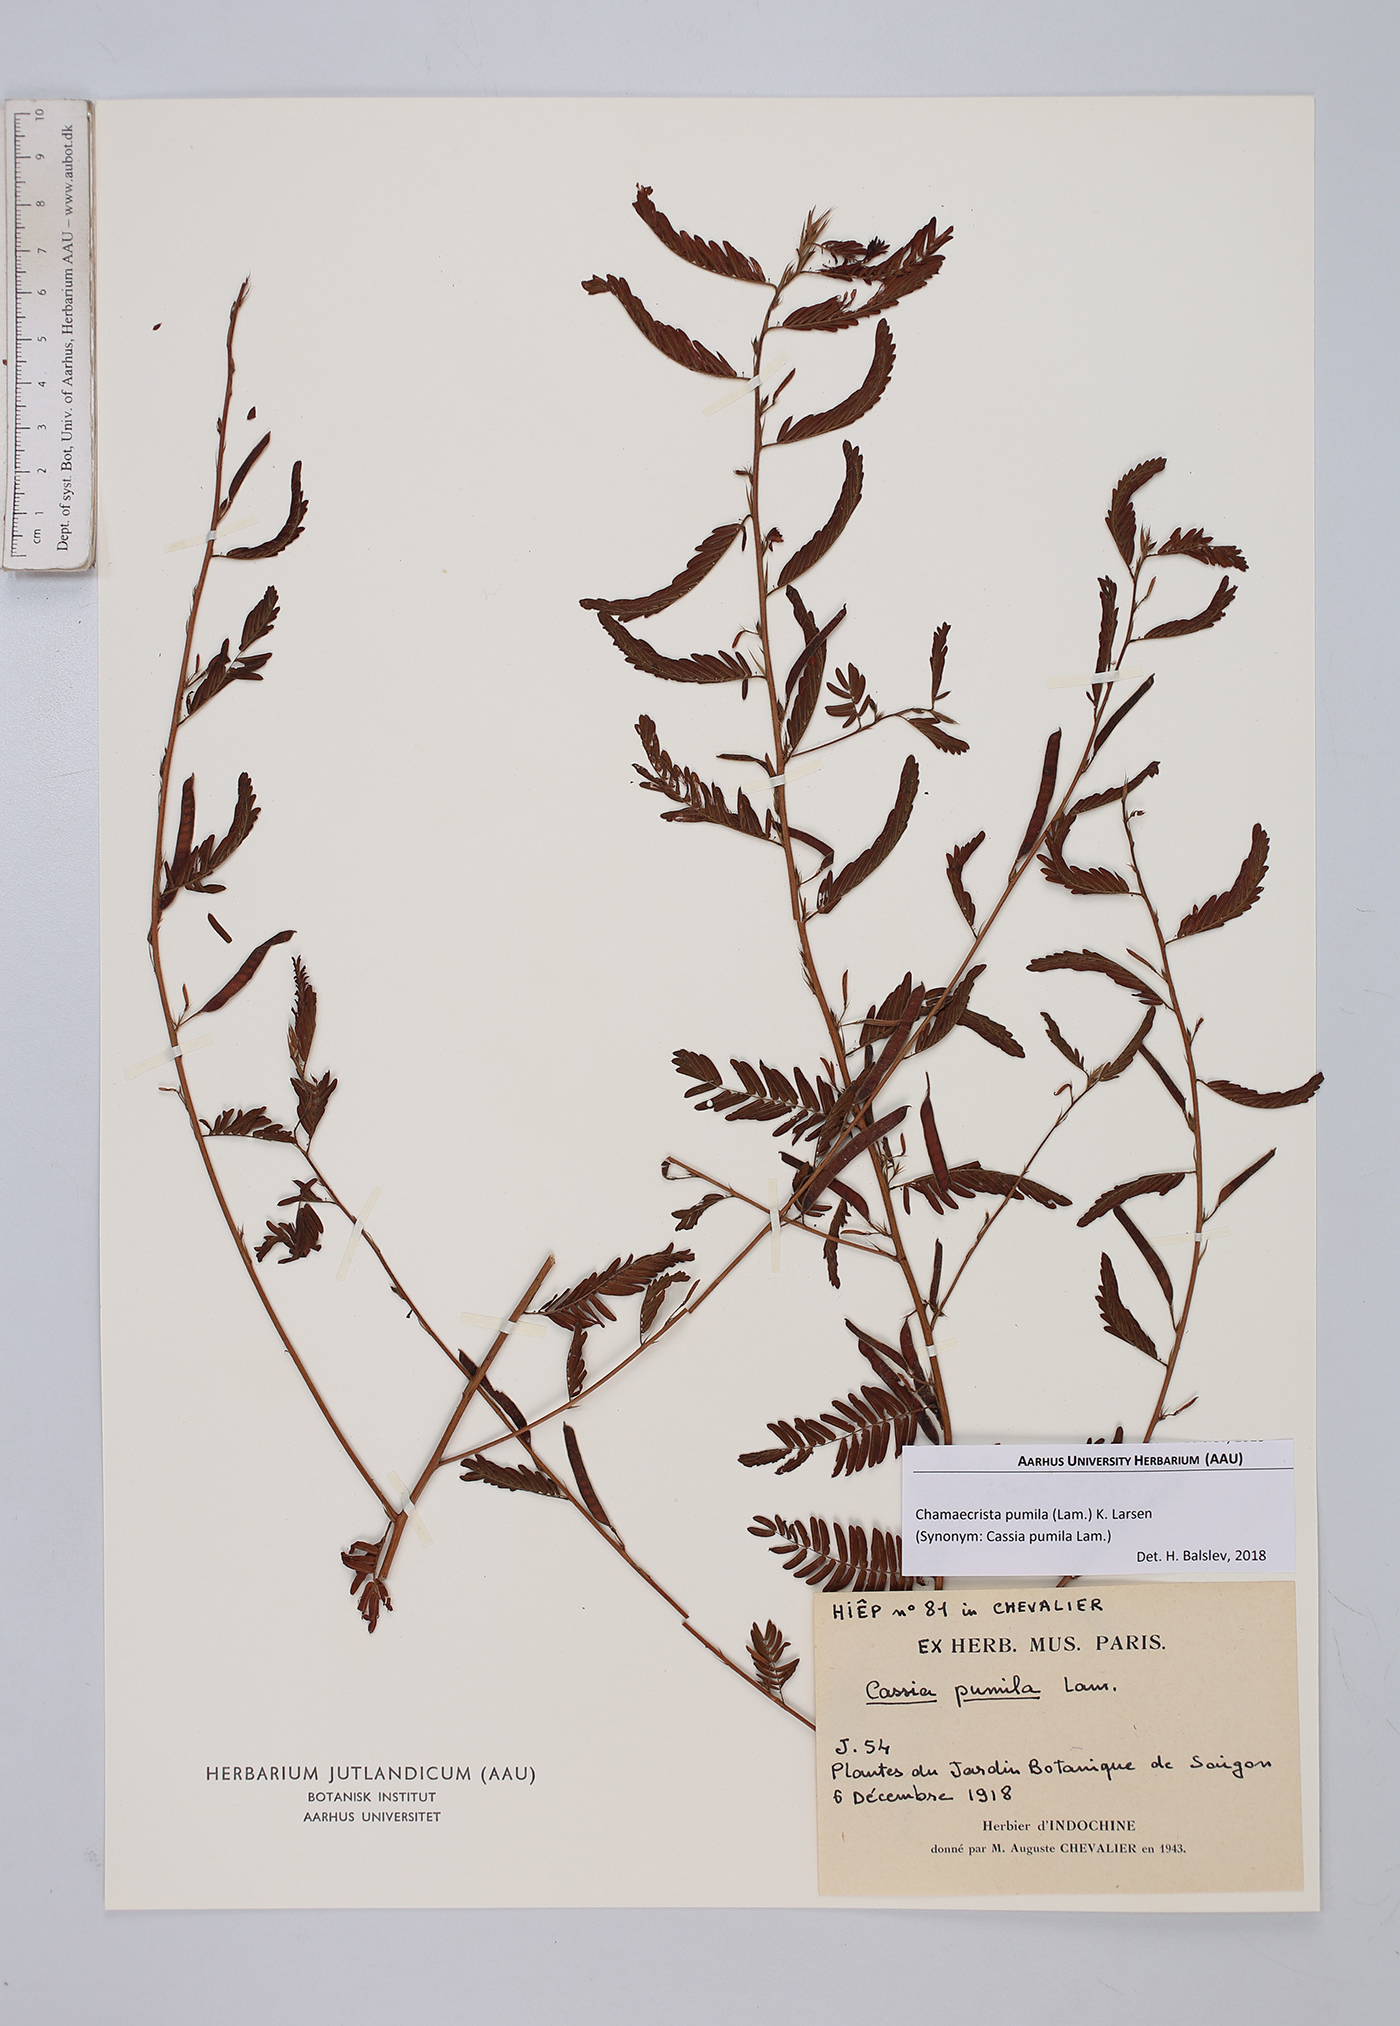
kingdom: Plantae
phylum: Tracheophyta
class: Magnoliopsida
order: Fabales
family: Fabaceae
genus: Chamaecrista
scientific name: Chamaecrista pumila
